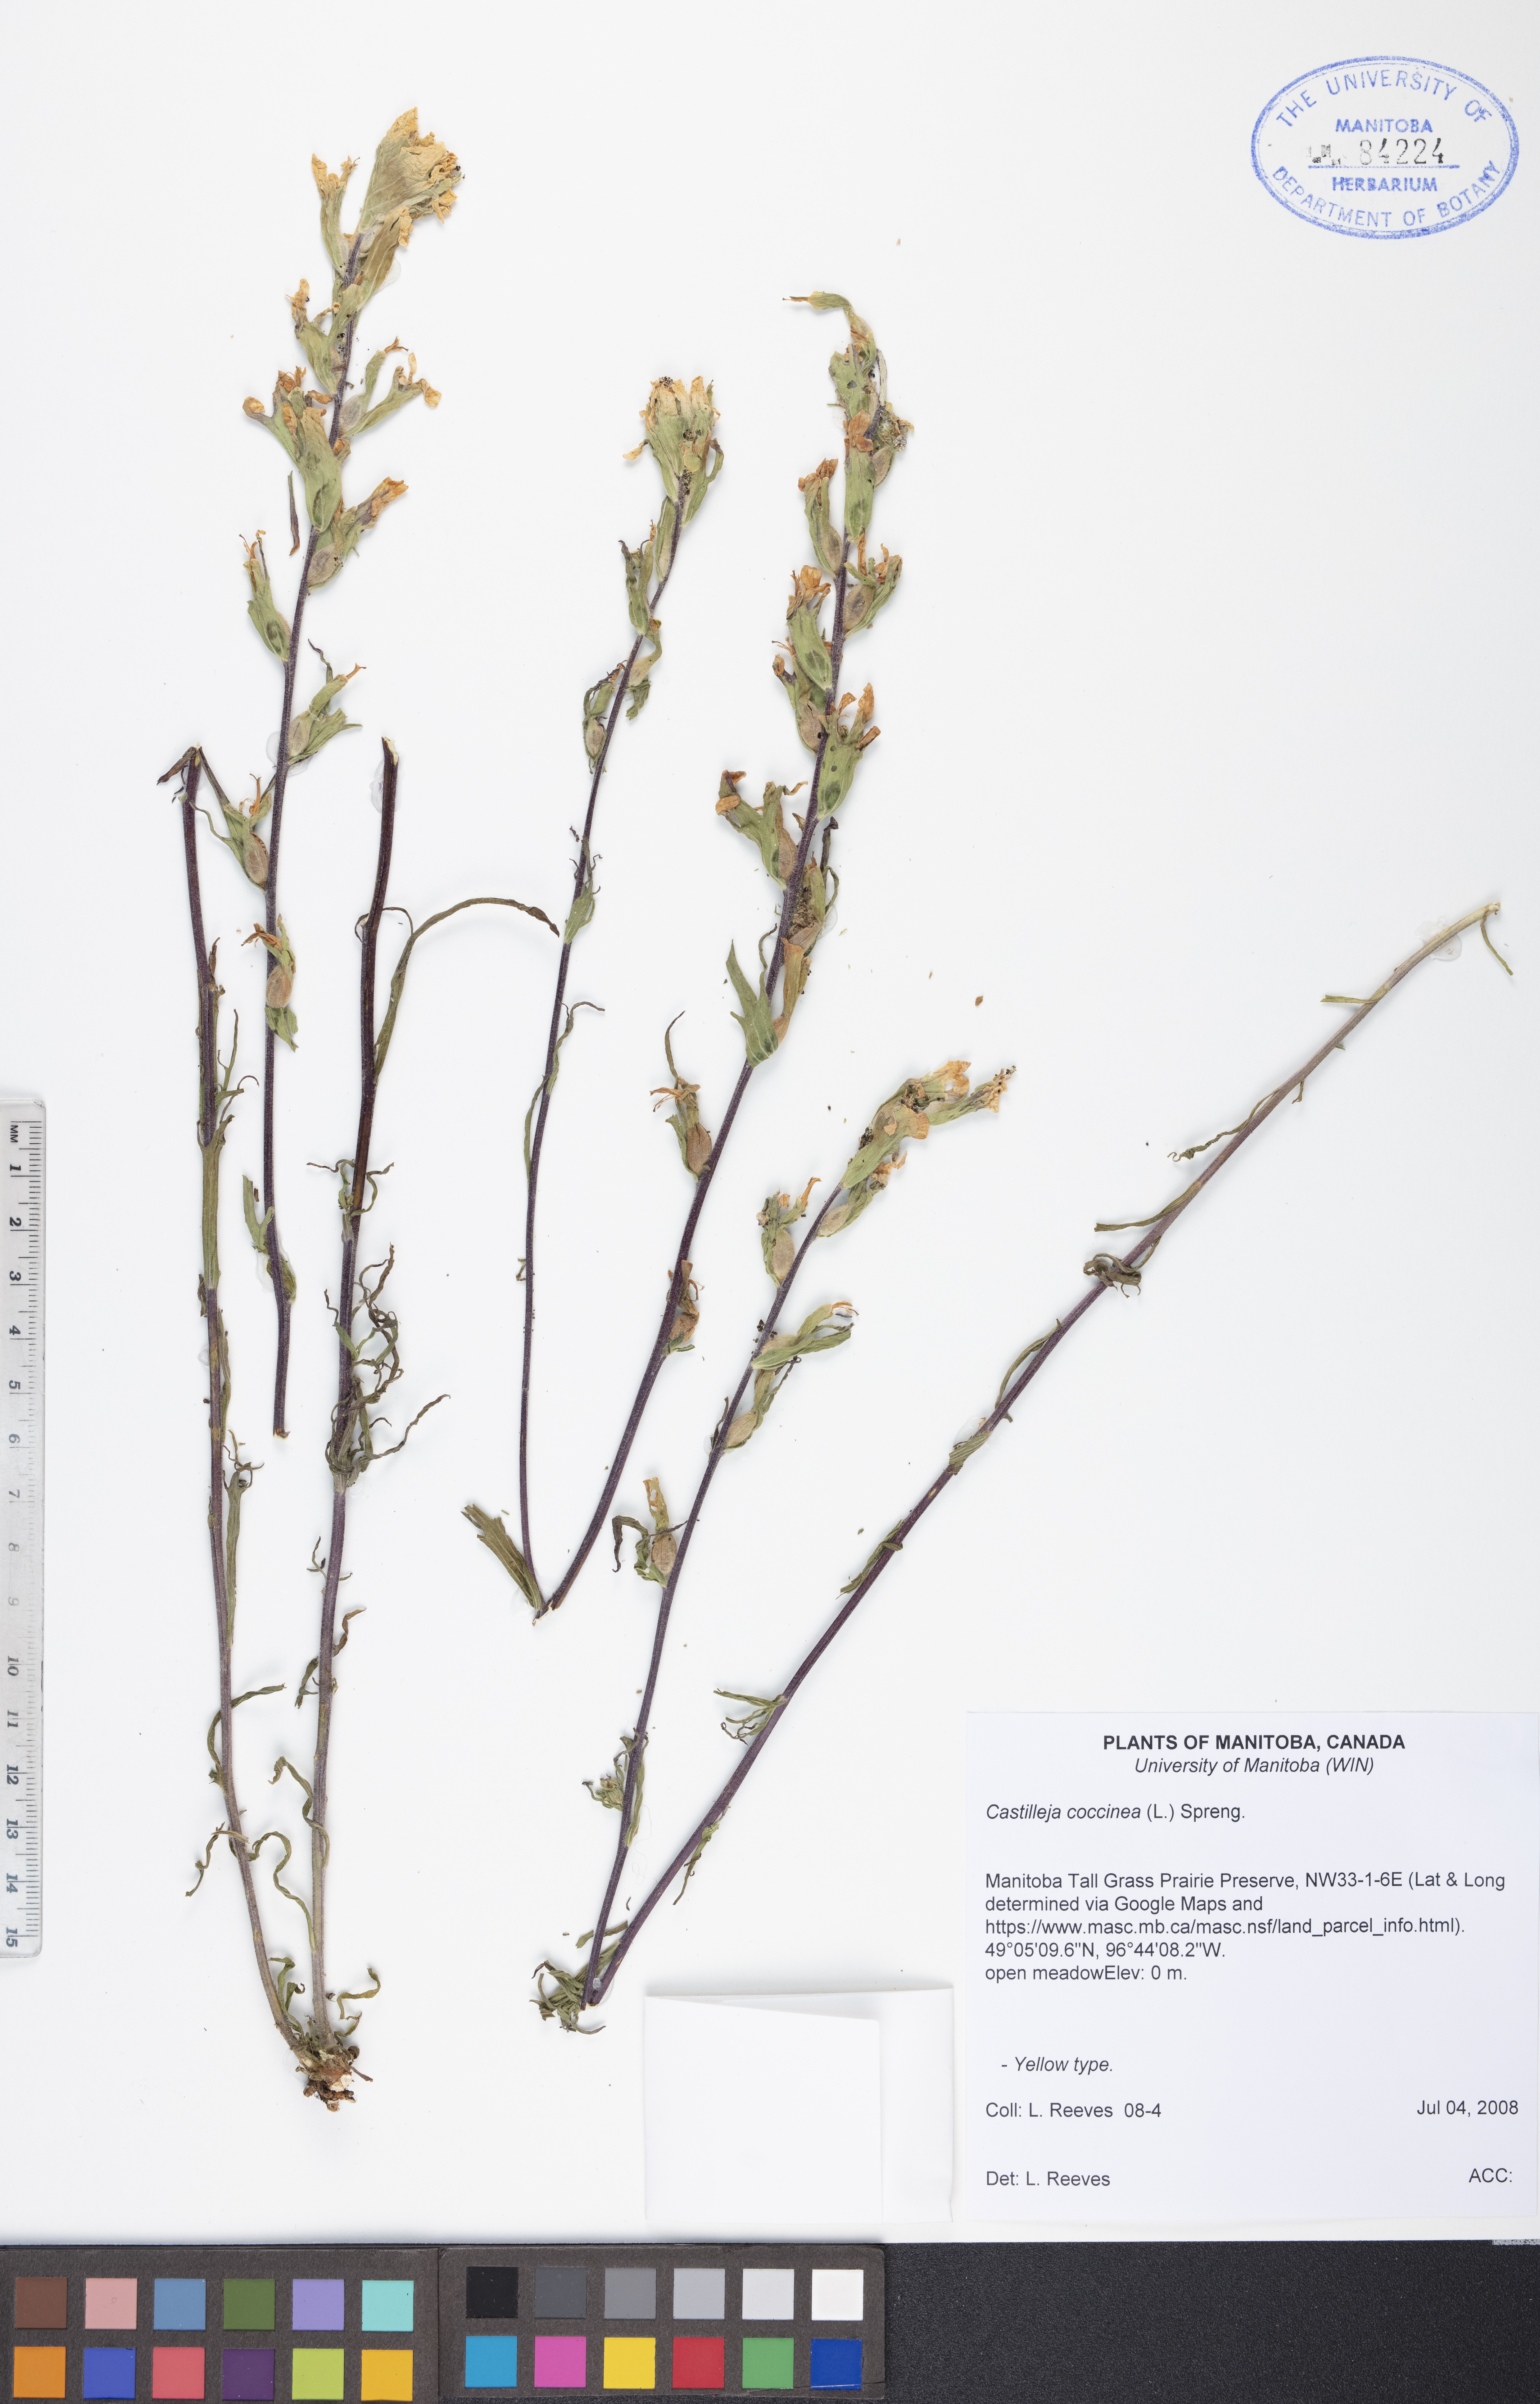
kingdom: Plantae
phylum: Tracheophyta
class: Magnoliopsida
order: Lamiales
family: Orobanchaceae
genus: Castilleja
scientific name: Castilleja coccinea
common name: Scarlet paintbrush
